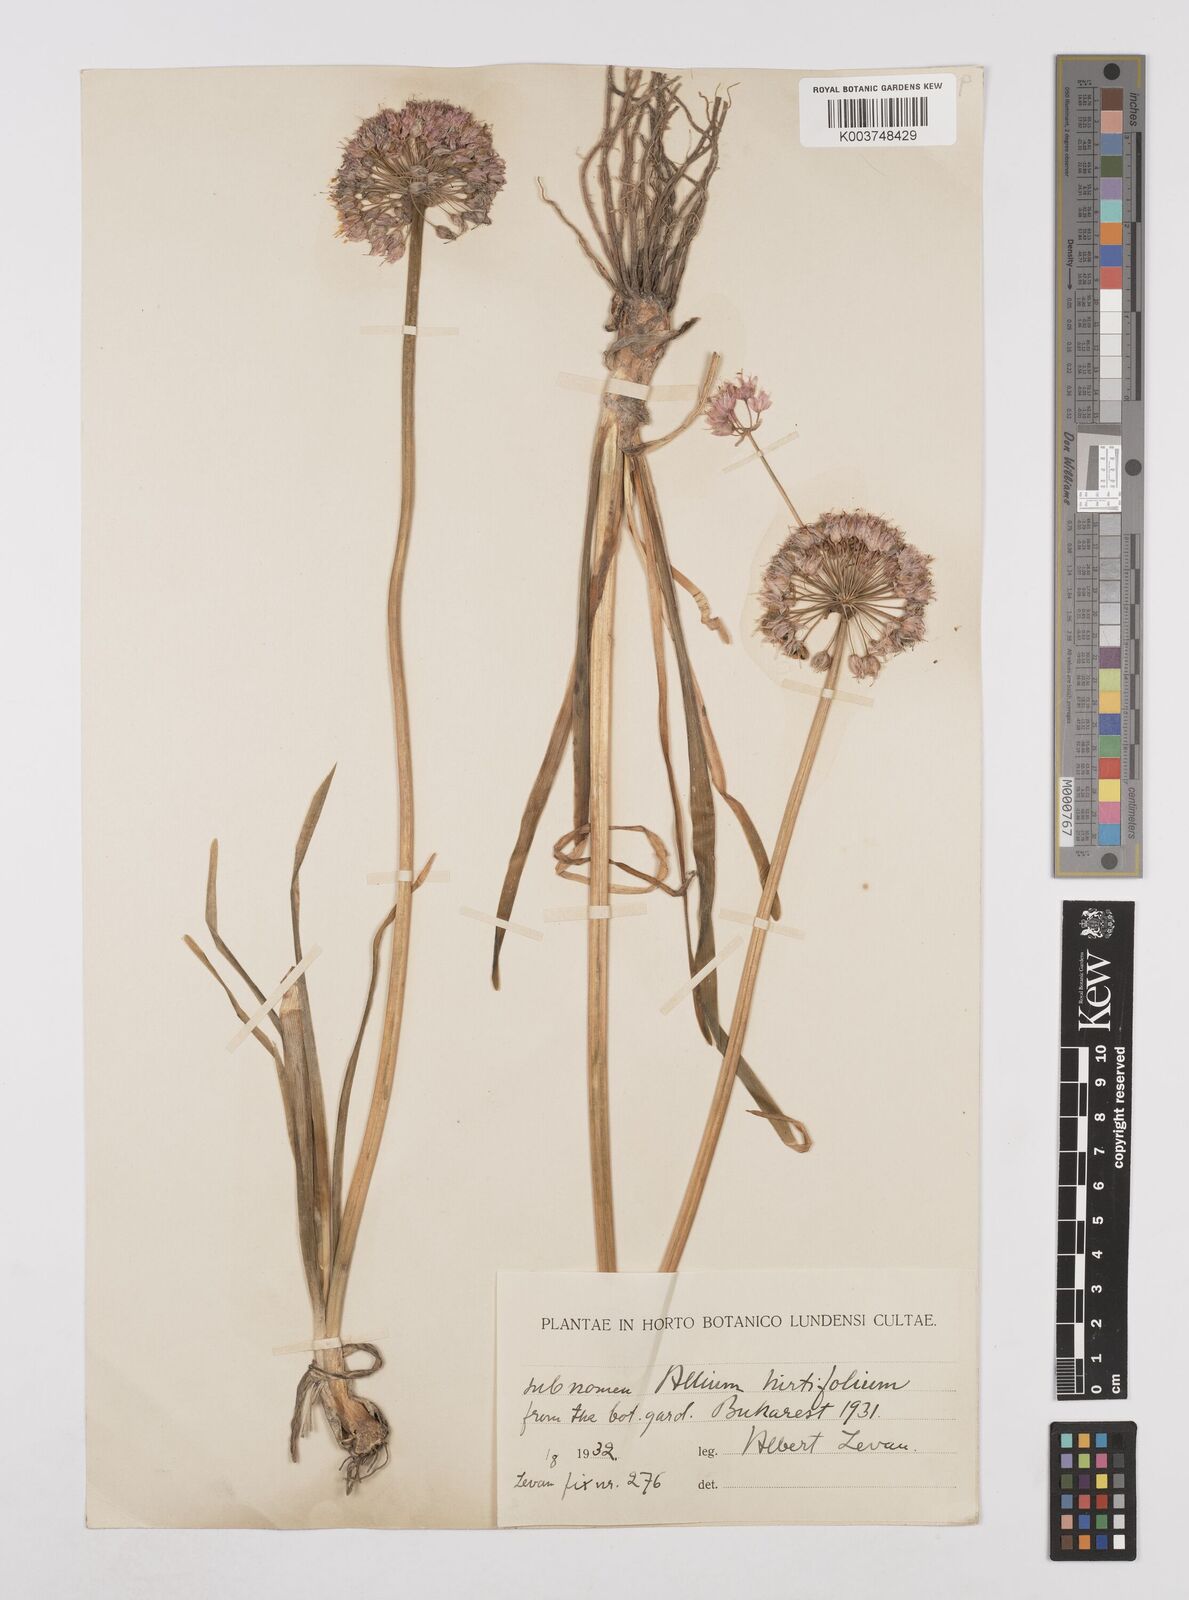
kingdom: Plantae
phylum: Tracheophyta
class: Liliopsida
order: Asparagales
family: Amaryllidaceae
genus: Allium
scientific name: Allium stipitatum
